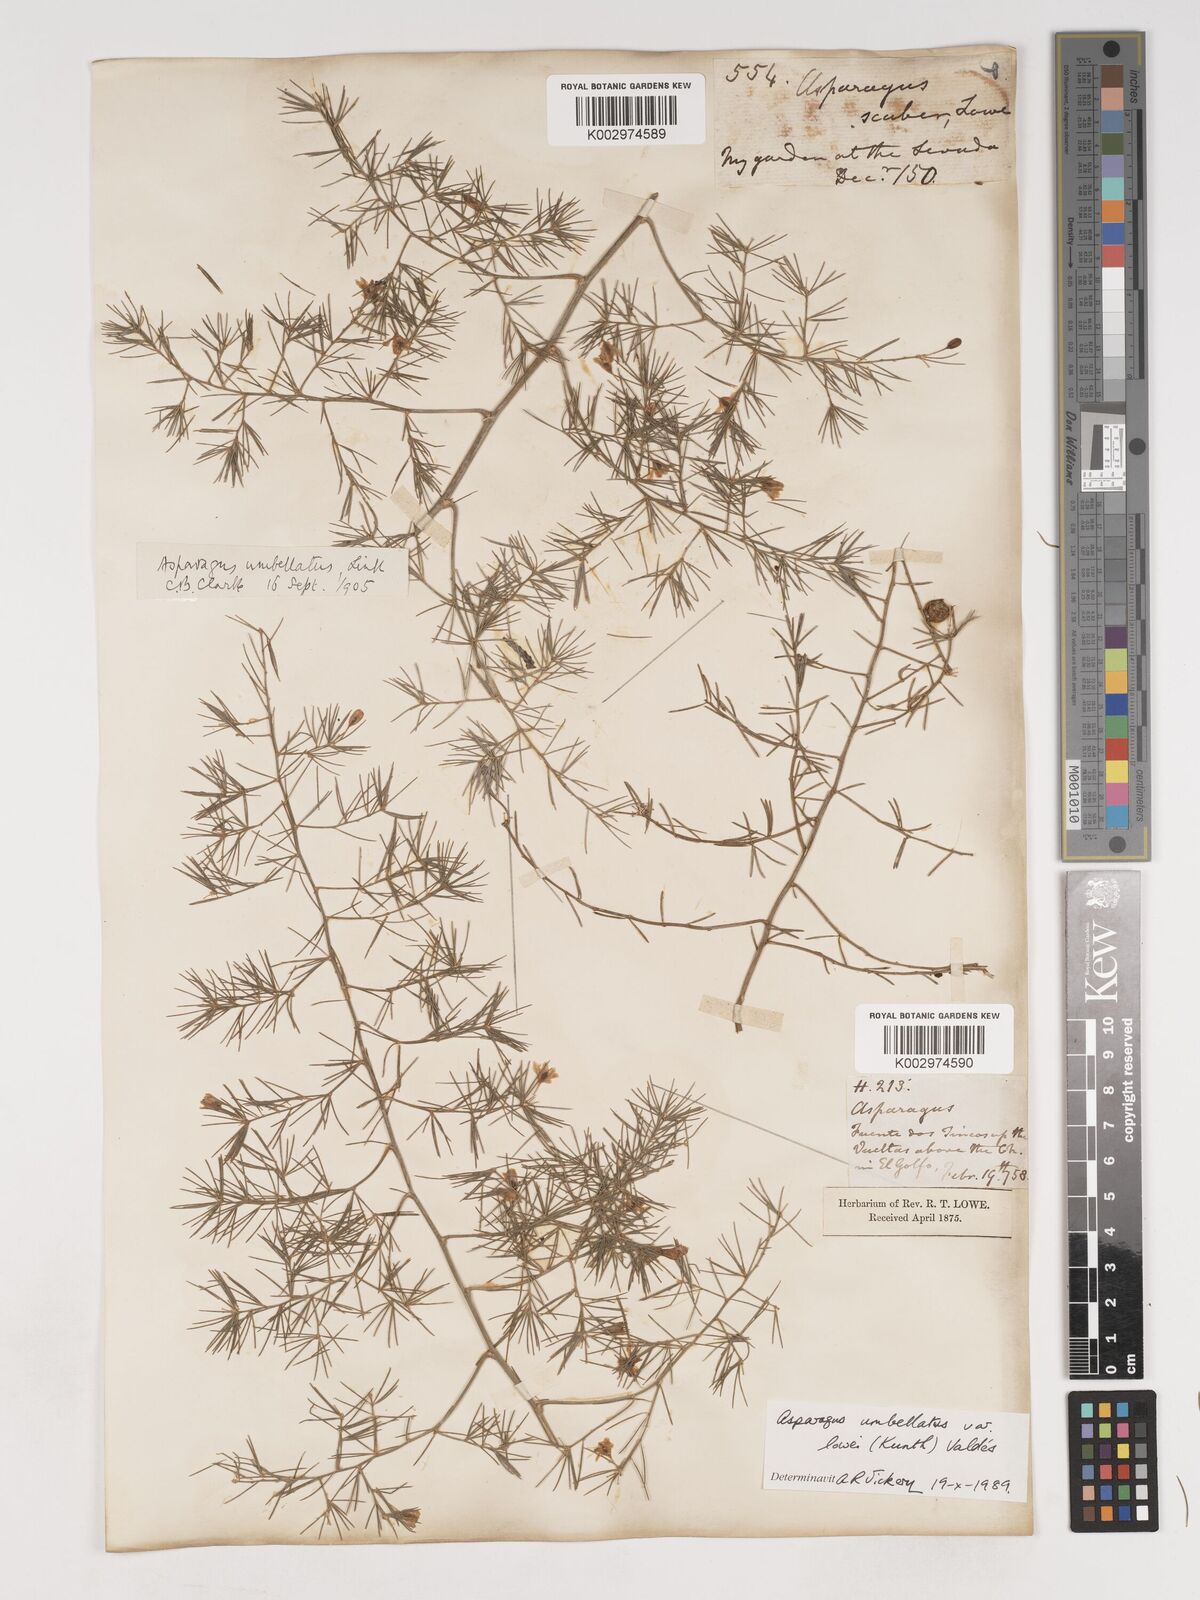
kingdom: Plantae
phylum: Tracheophyta
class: Liliopsida
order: Asparagales
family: Asparagaceae
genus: Asparagus
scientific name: Asparagus umbellatus
